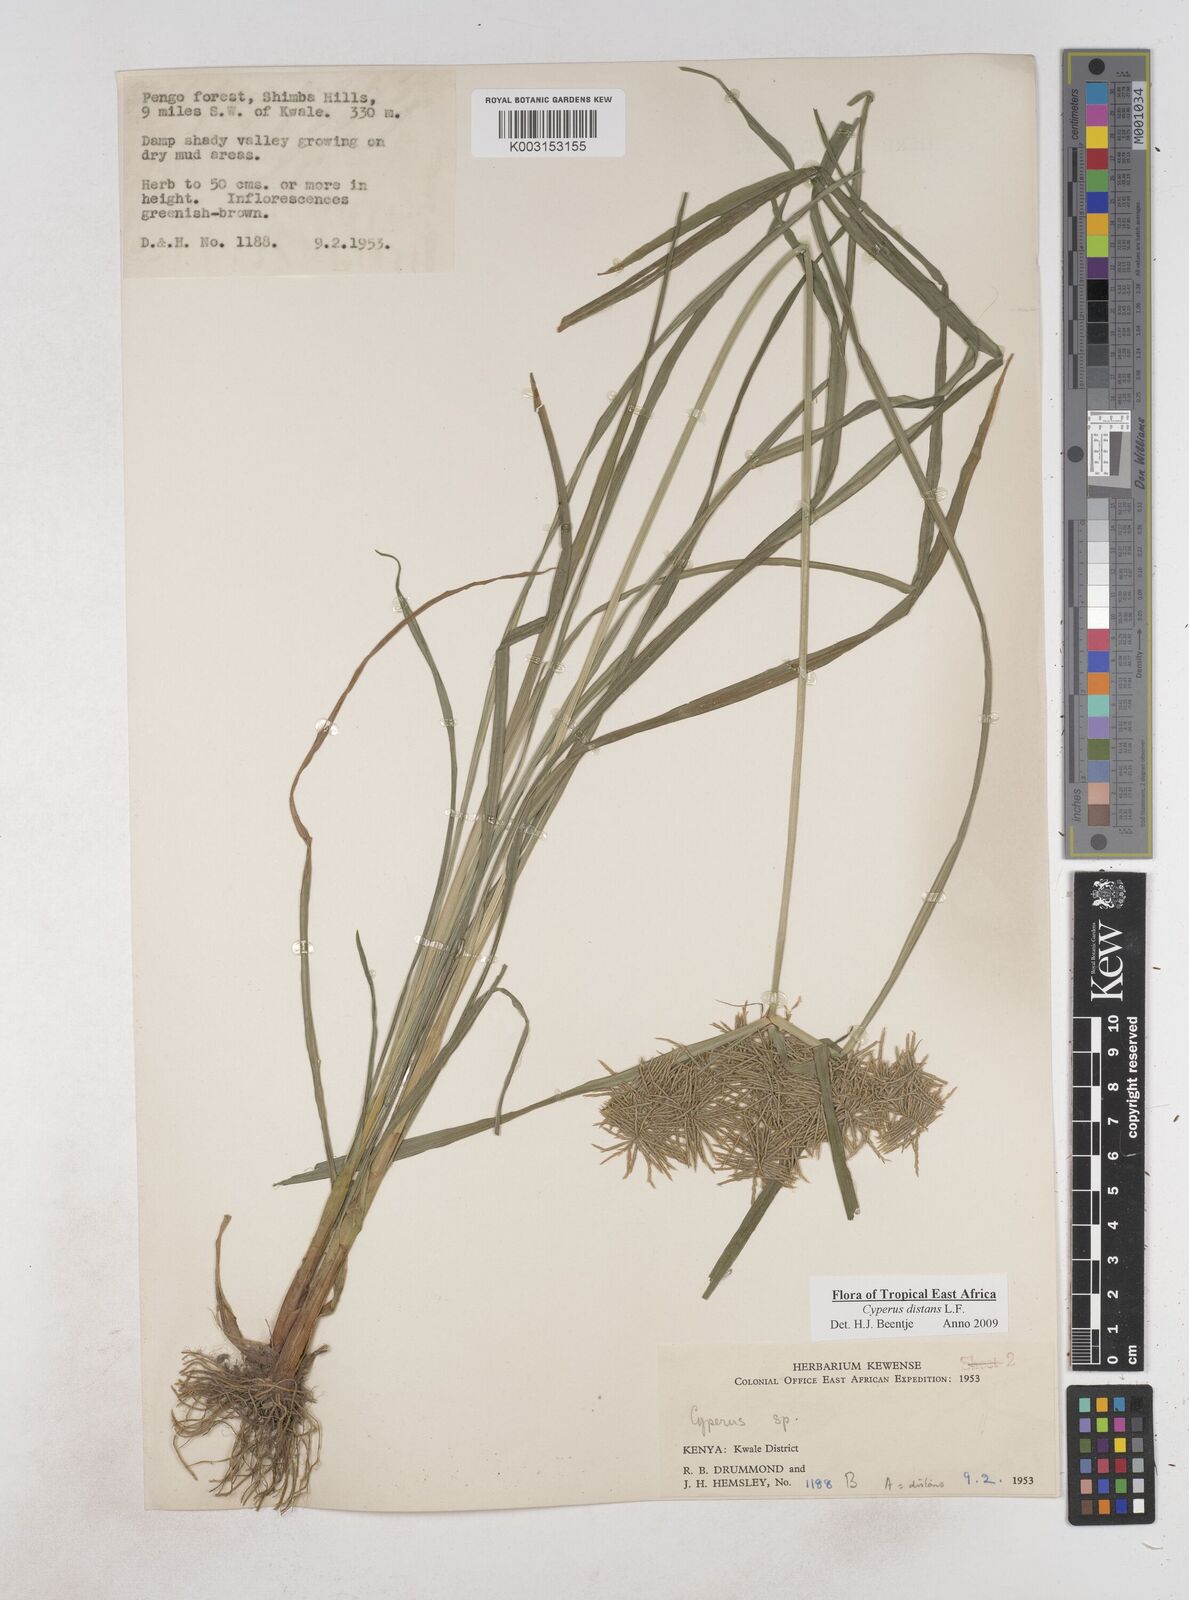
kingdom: Plantae
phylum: Tracheophyta
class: Liliopsida
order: Poales
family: Cyperaceae
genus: Cyperus
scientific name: Cyperus distans
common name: Slender cyperus
